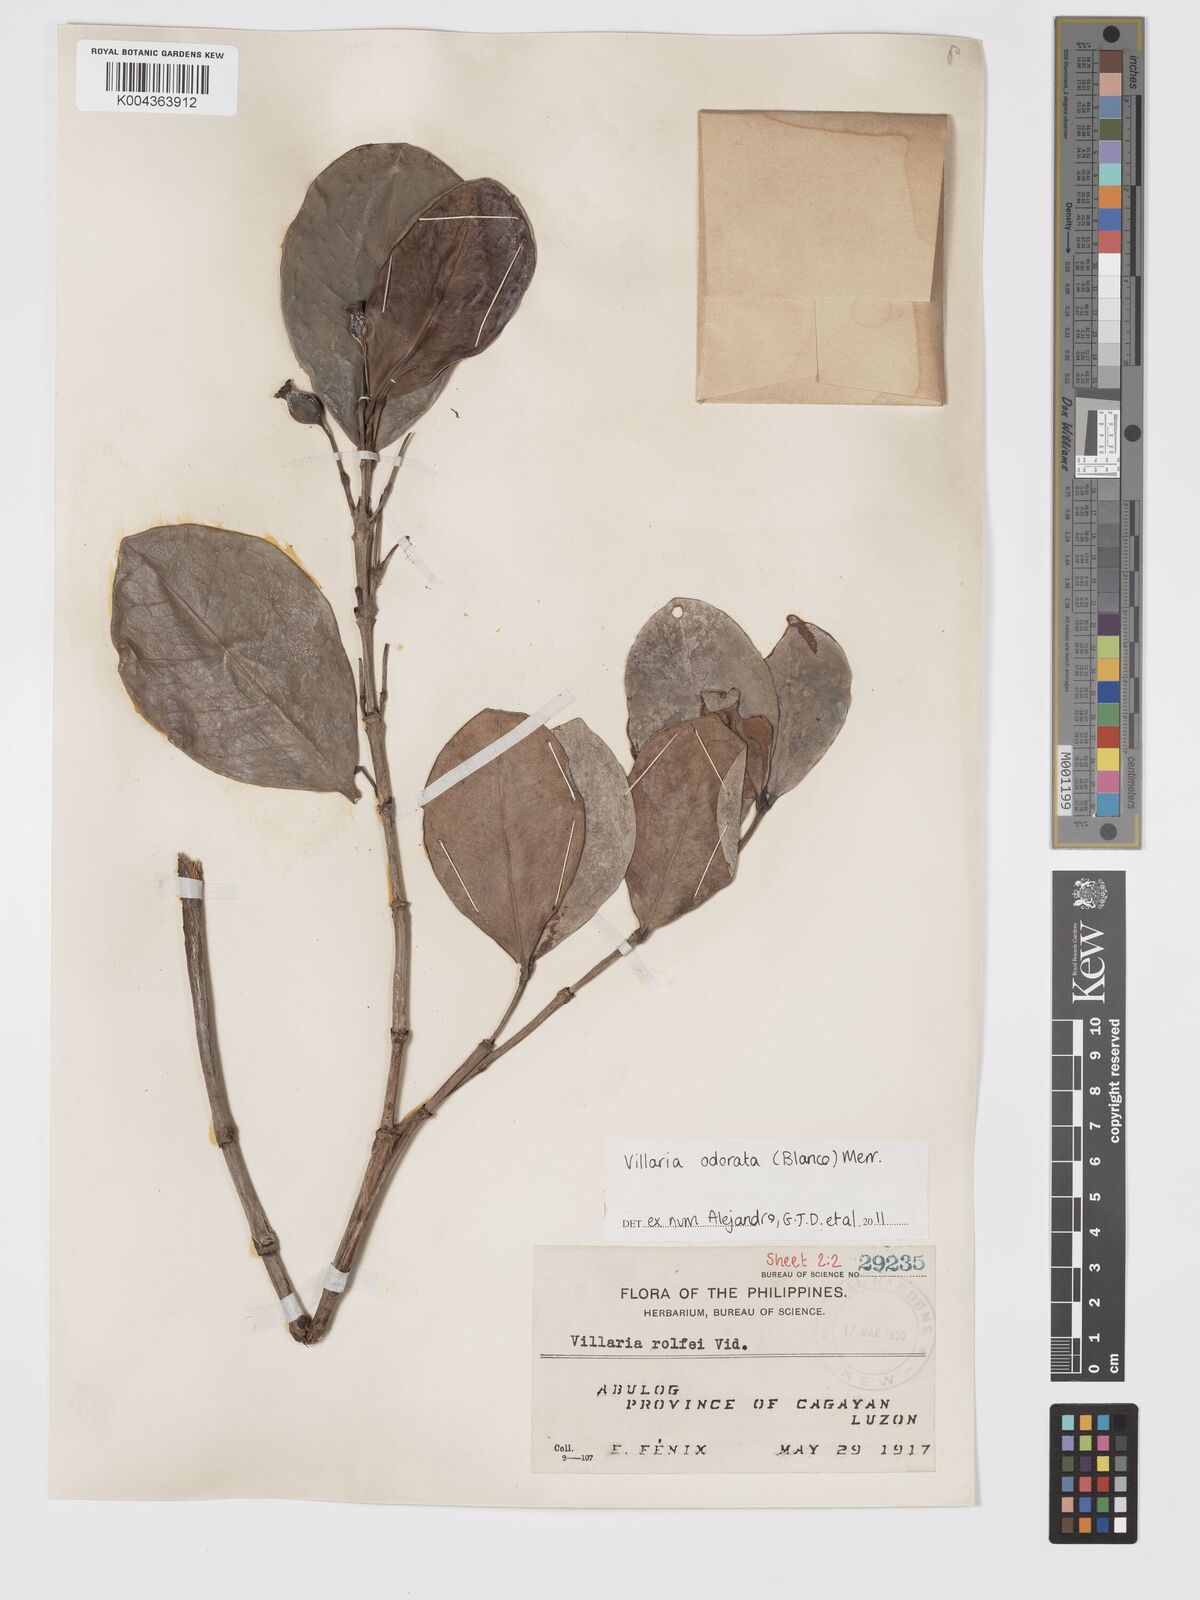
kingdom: Plantae
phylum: Tracheophyta
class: Magnoliopsida
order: Gentianales
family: Rubiaceae
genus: Villaria
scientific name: Villaria odorata
